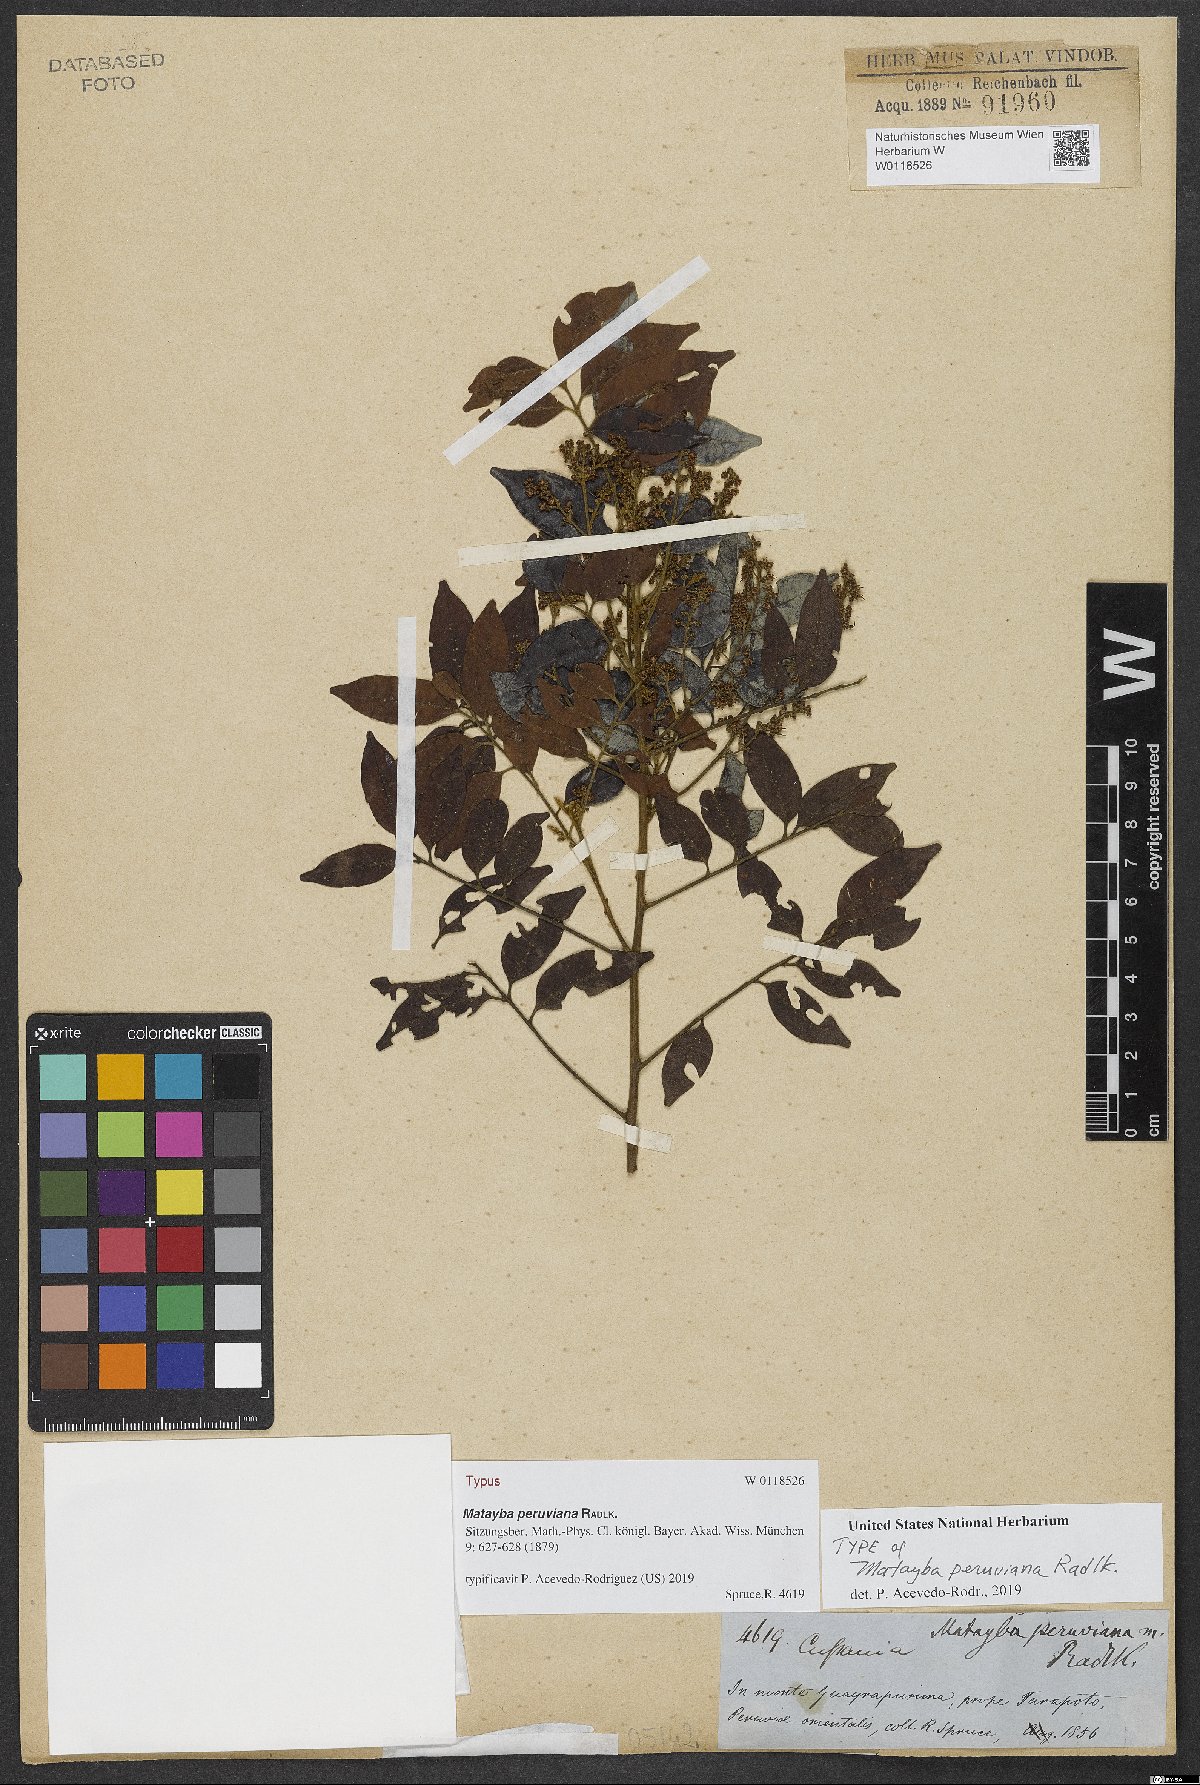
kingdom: Plantae
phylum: Tracheophyta
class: Magnoliopsida
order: Sapindales
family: Sapindaceae
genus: Matayba
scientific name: Matayba peruviana
